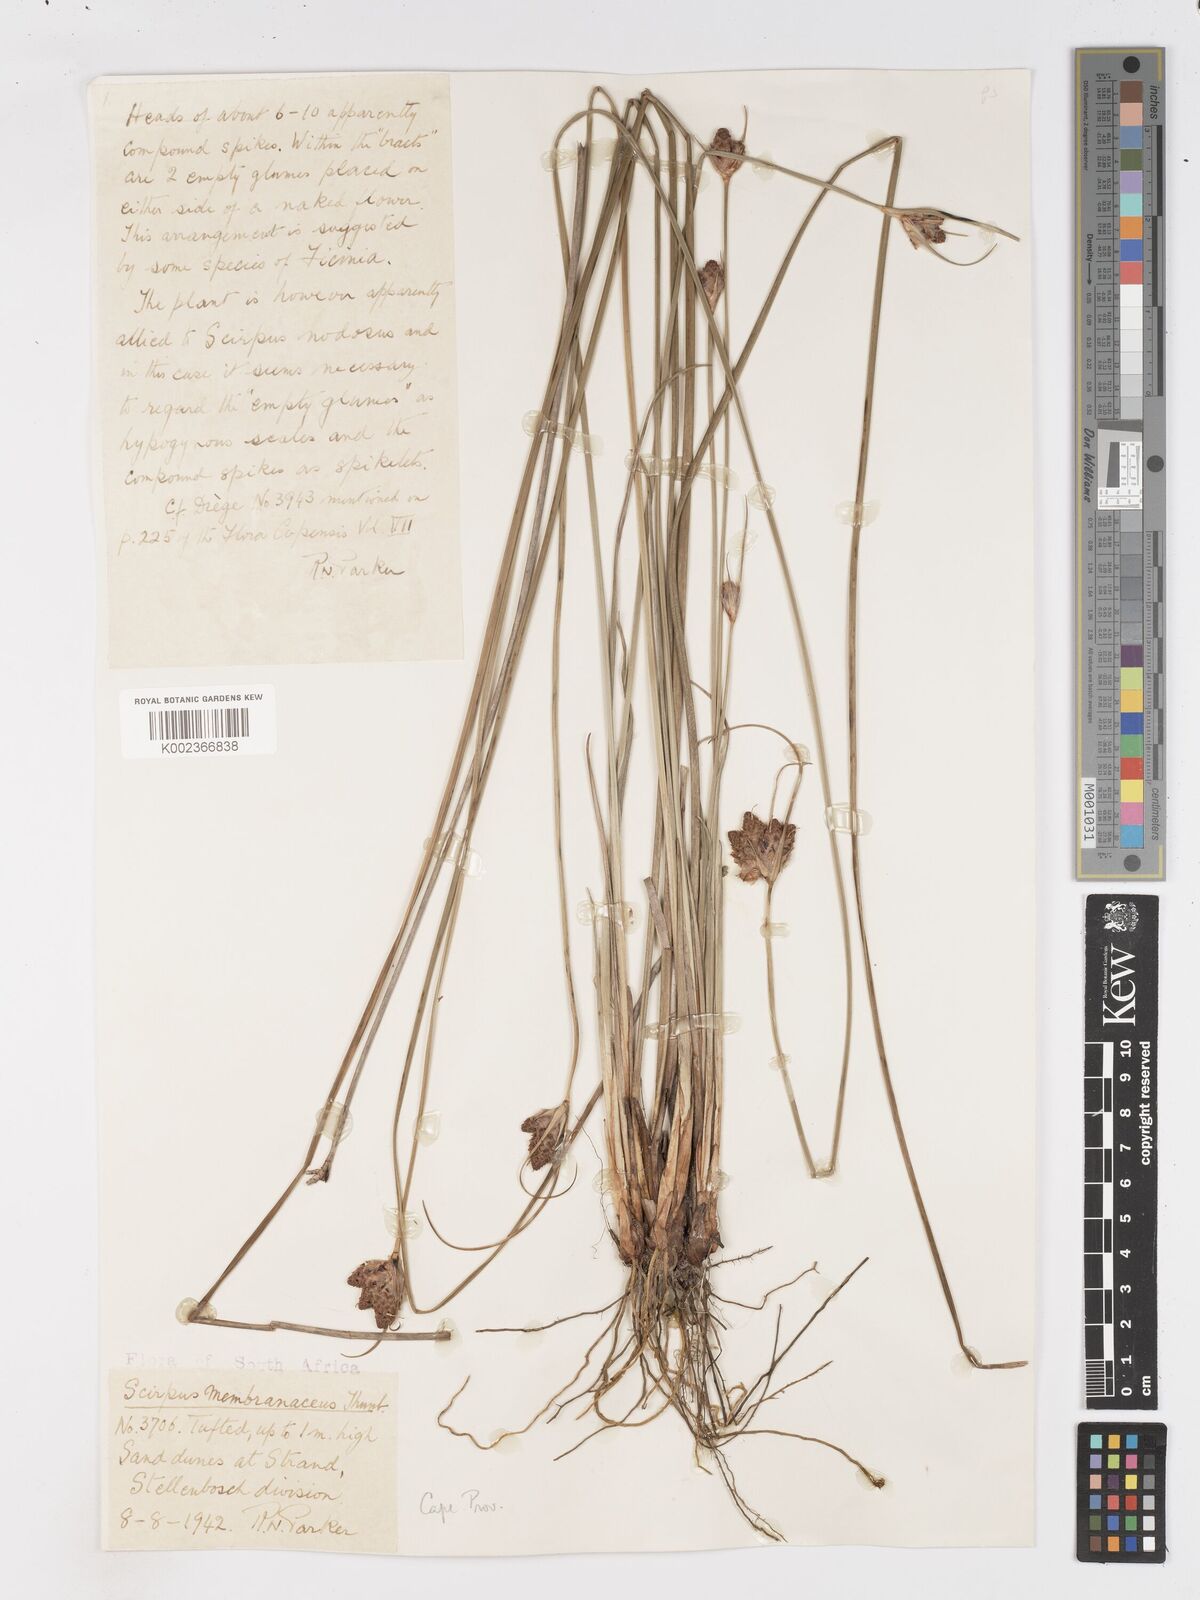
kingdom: Plantae
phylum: Tracheophyta
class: Liliopsida
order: Poales
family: Cyperaceae
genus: Hellmuthia
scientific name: Hellmuthia membranacea
